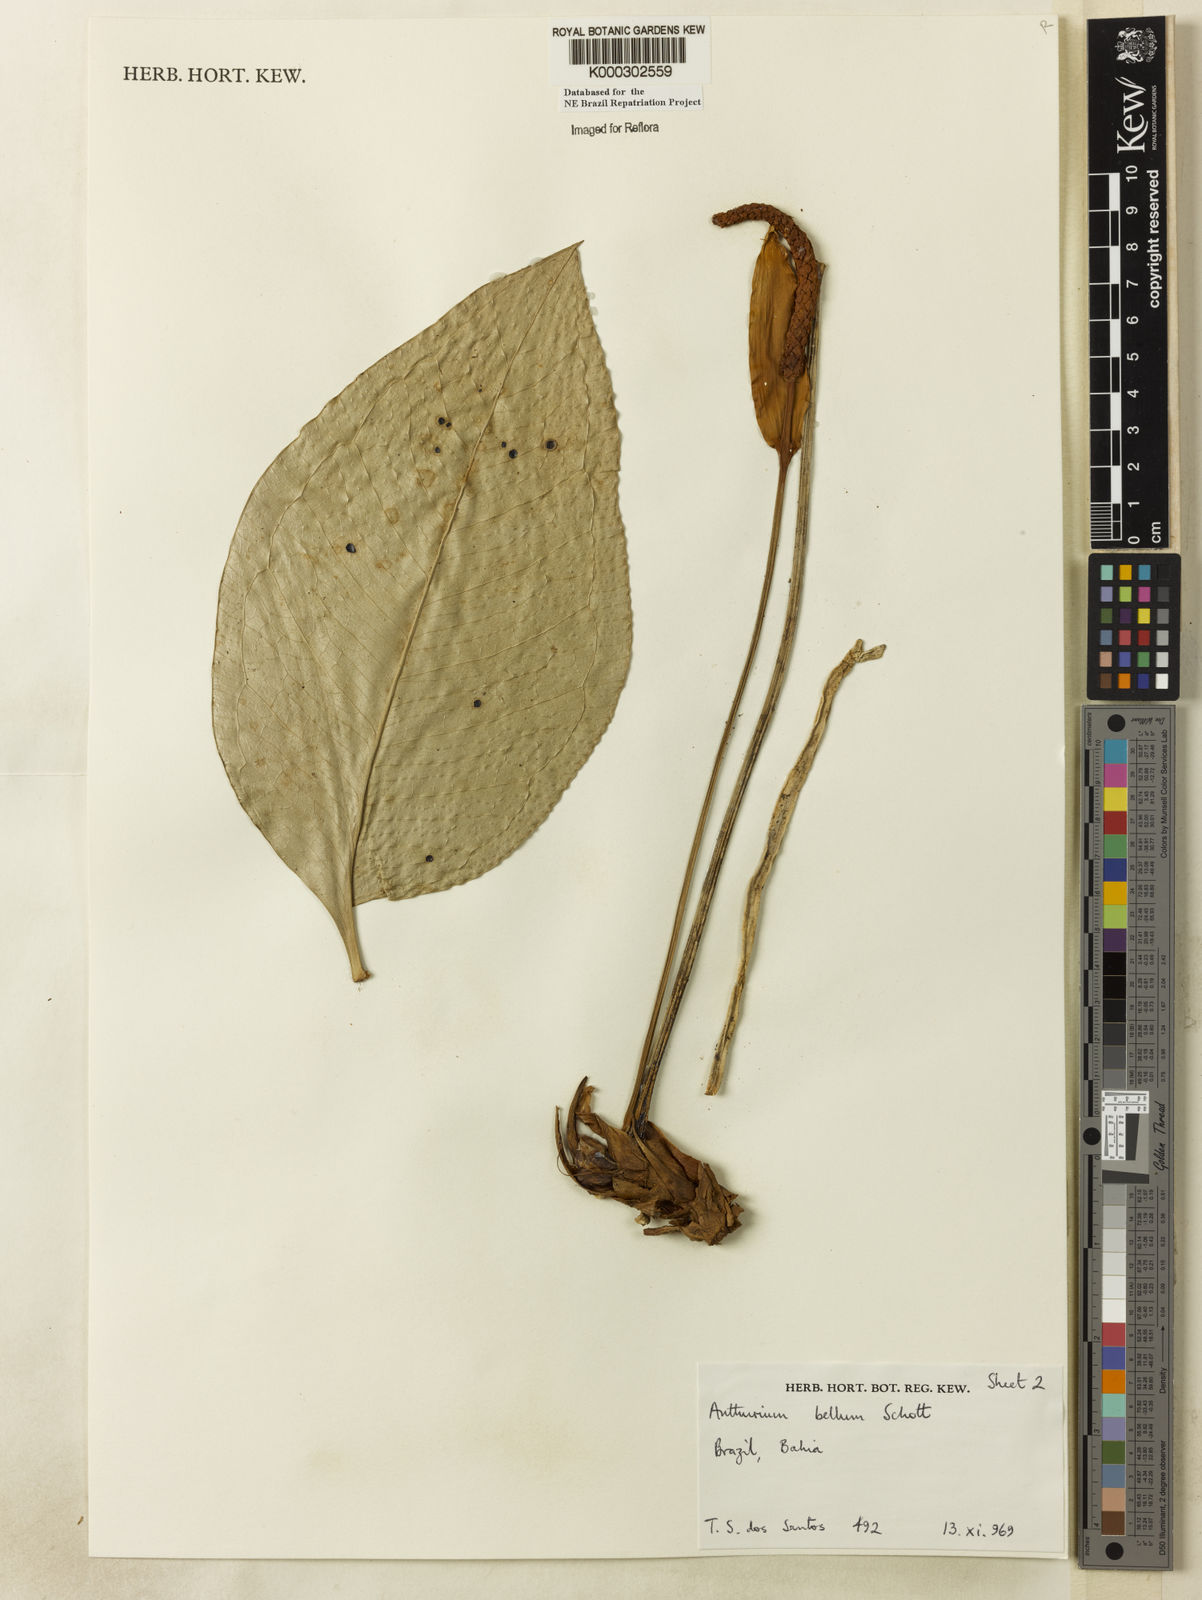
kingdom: Plantae
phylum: Tracheophyta
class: Liliopsida
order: Alismatales
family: Araceae
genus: Anthurium
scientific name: Anthurium bellum
